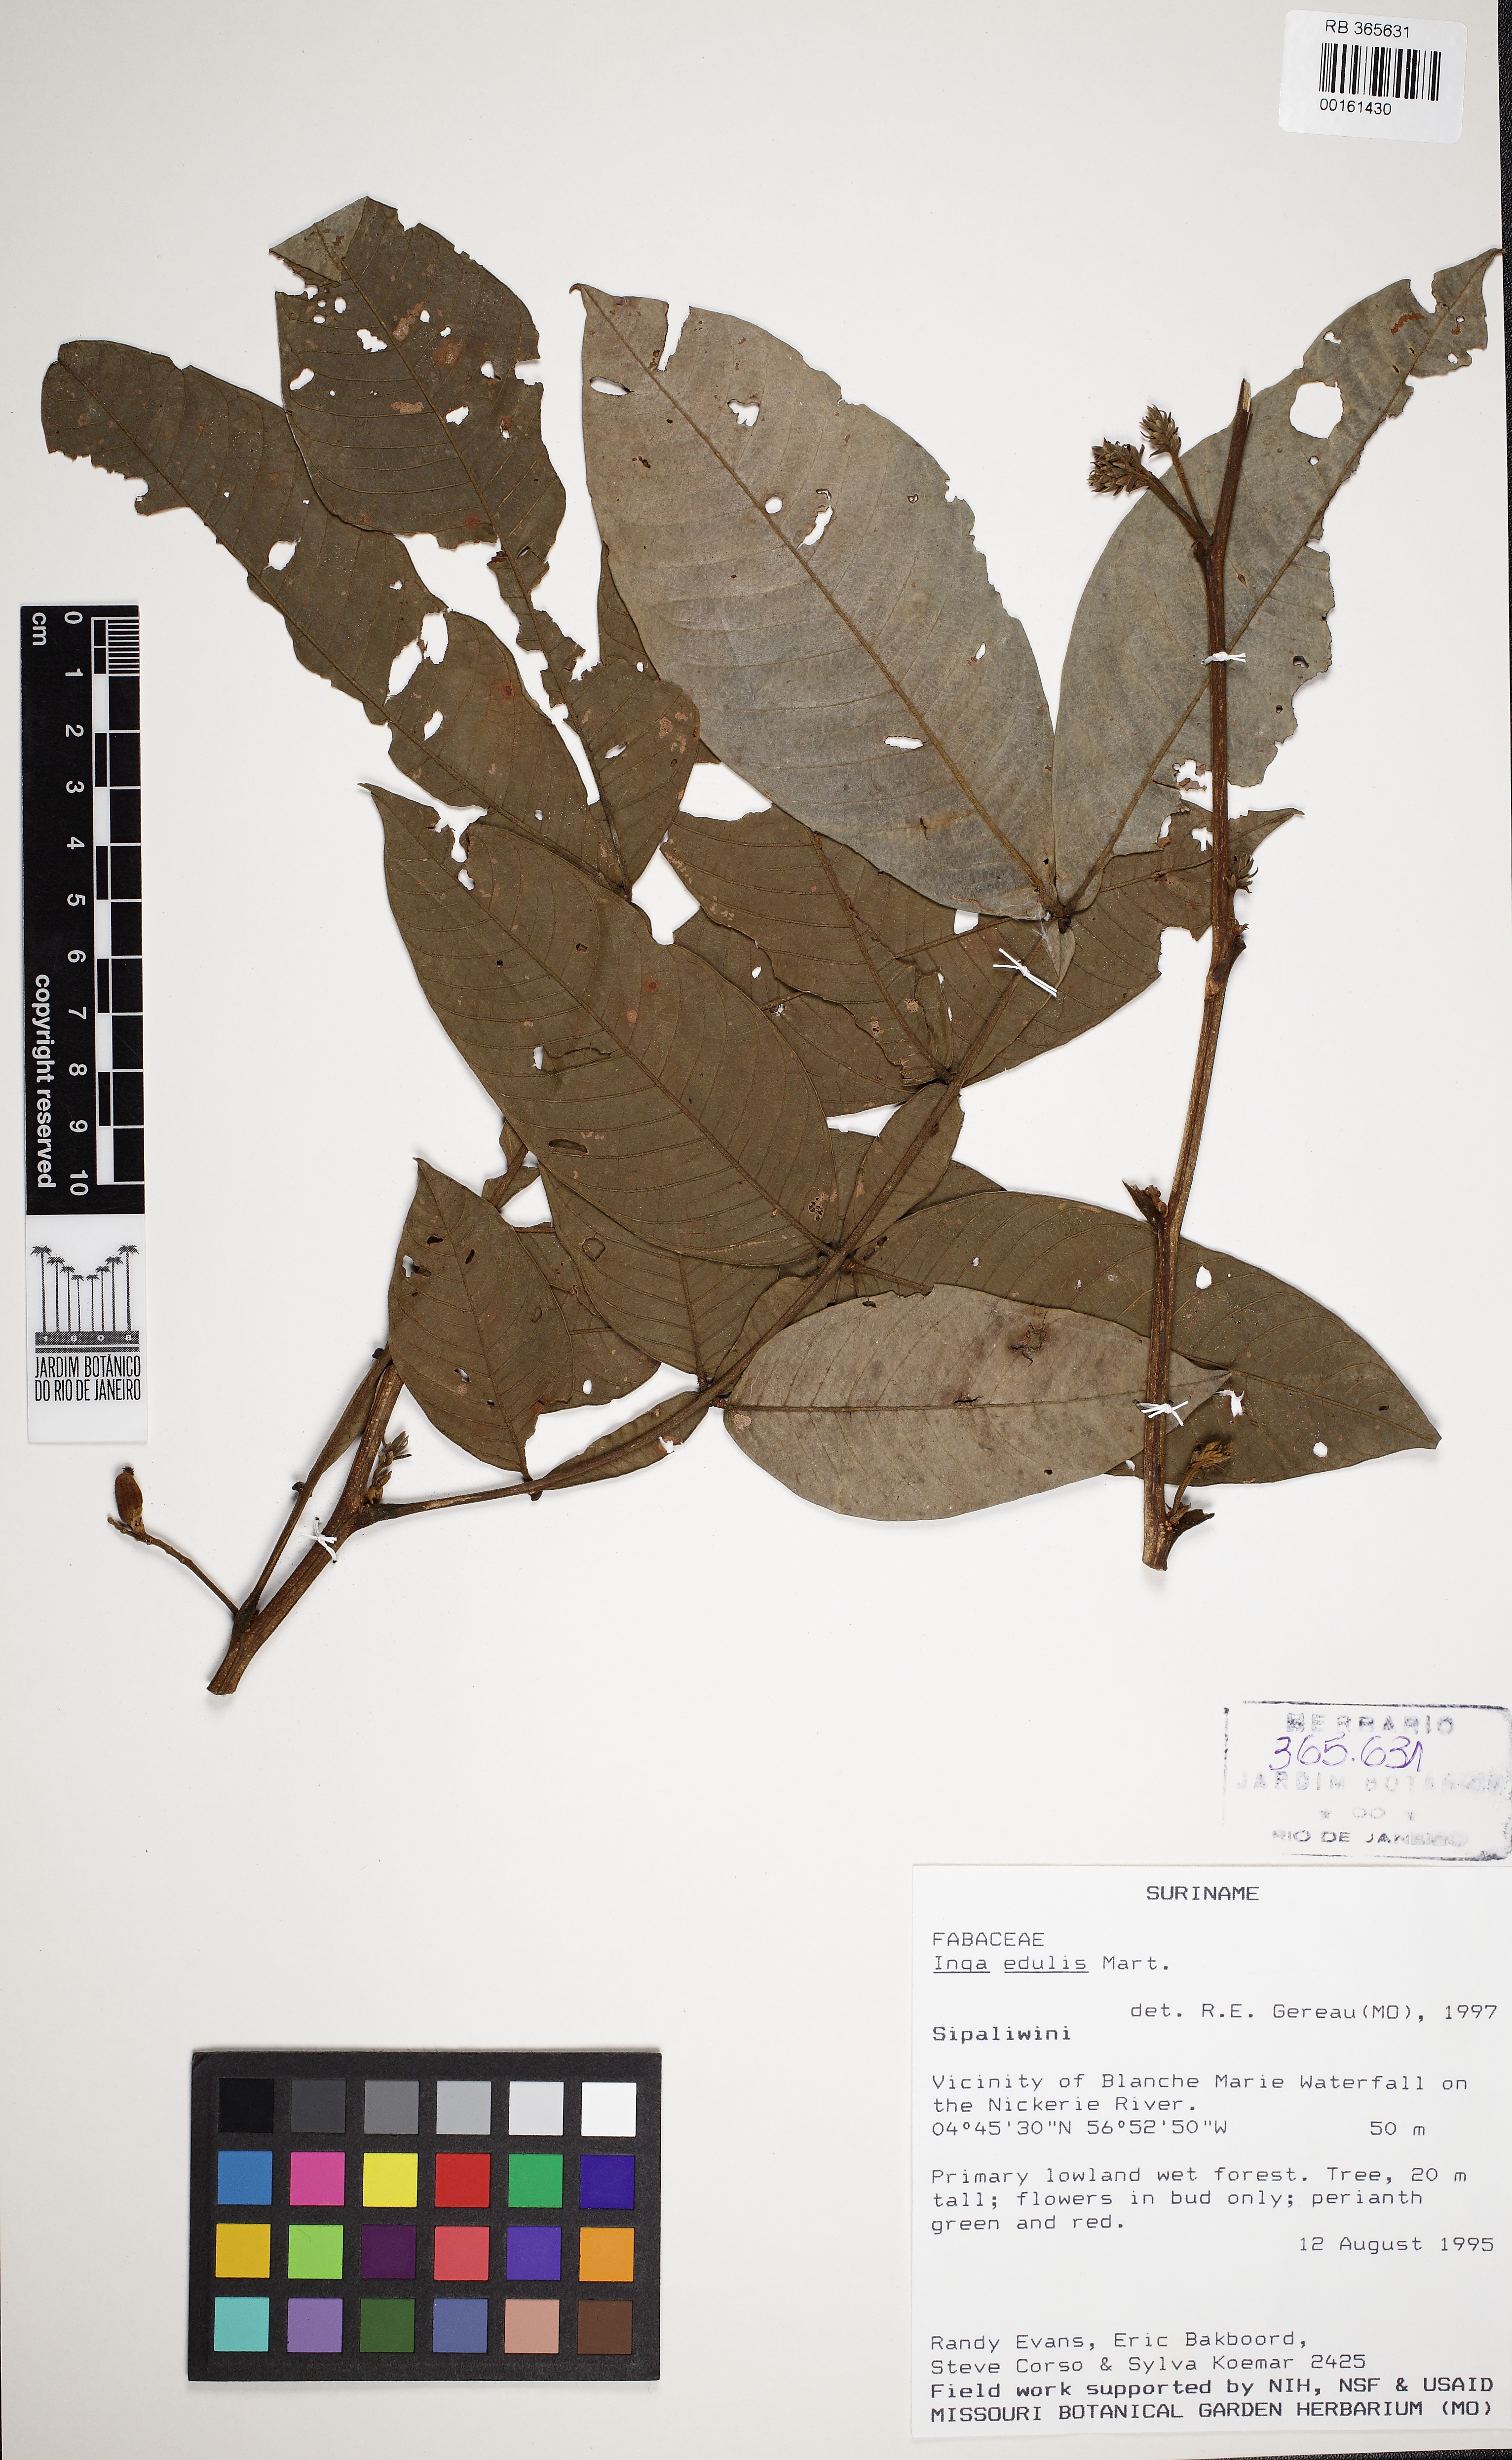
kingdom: Plantae
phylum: Tracheophyta
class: Magnoliopsida
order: Fabales
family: Fabaceae
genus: Inga
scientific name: Inga edulis
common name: Ice cream bean
